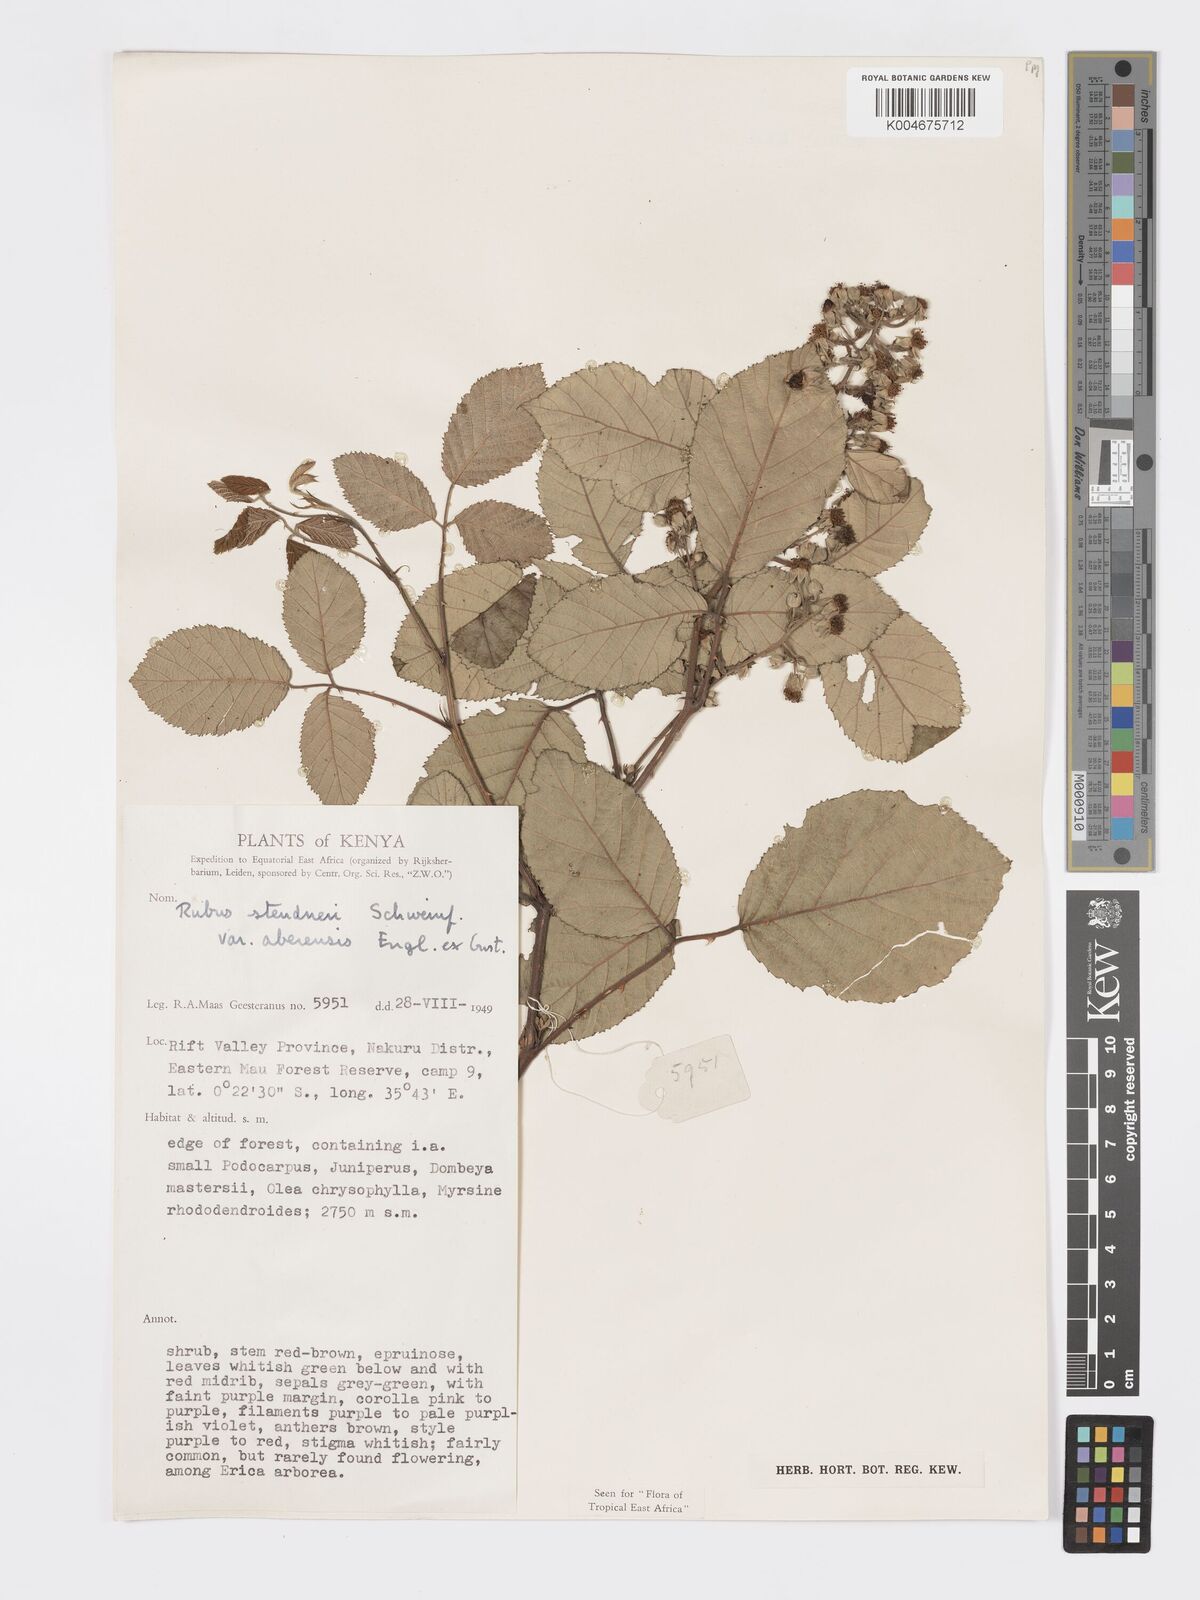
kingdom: Plantae
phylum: Tracheophyta
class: Magnoliopsida
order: Rosales
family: Rosaceae
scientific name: Rosaceae
